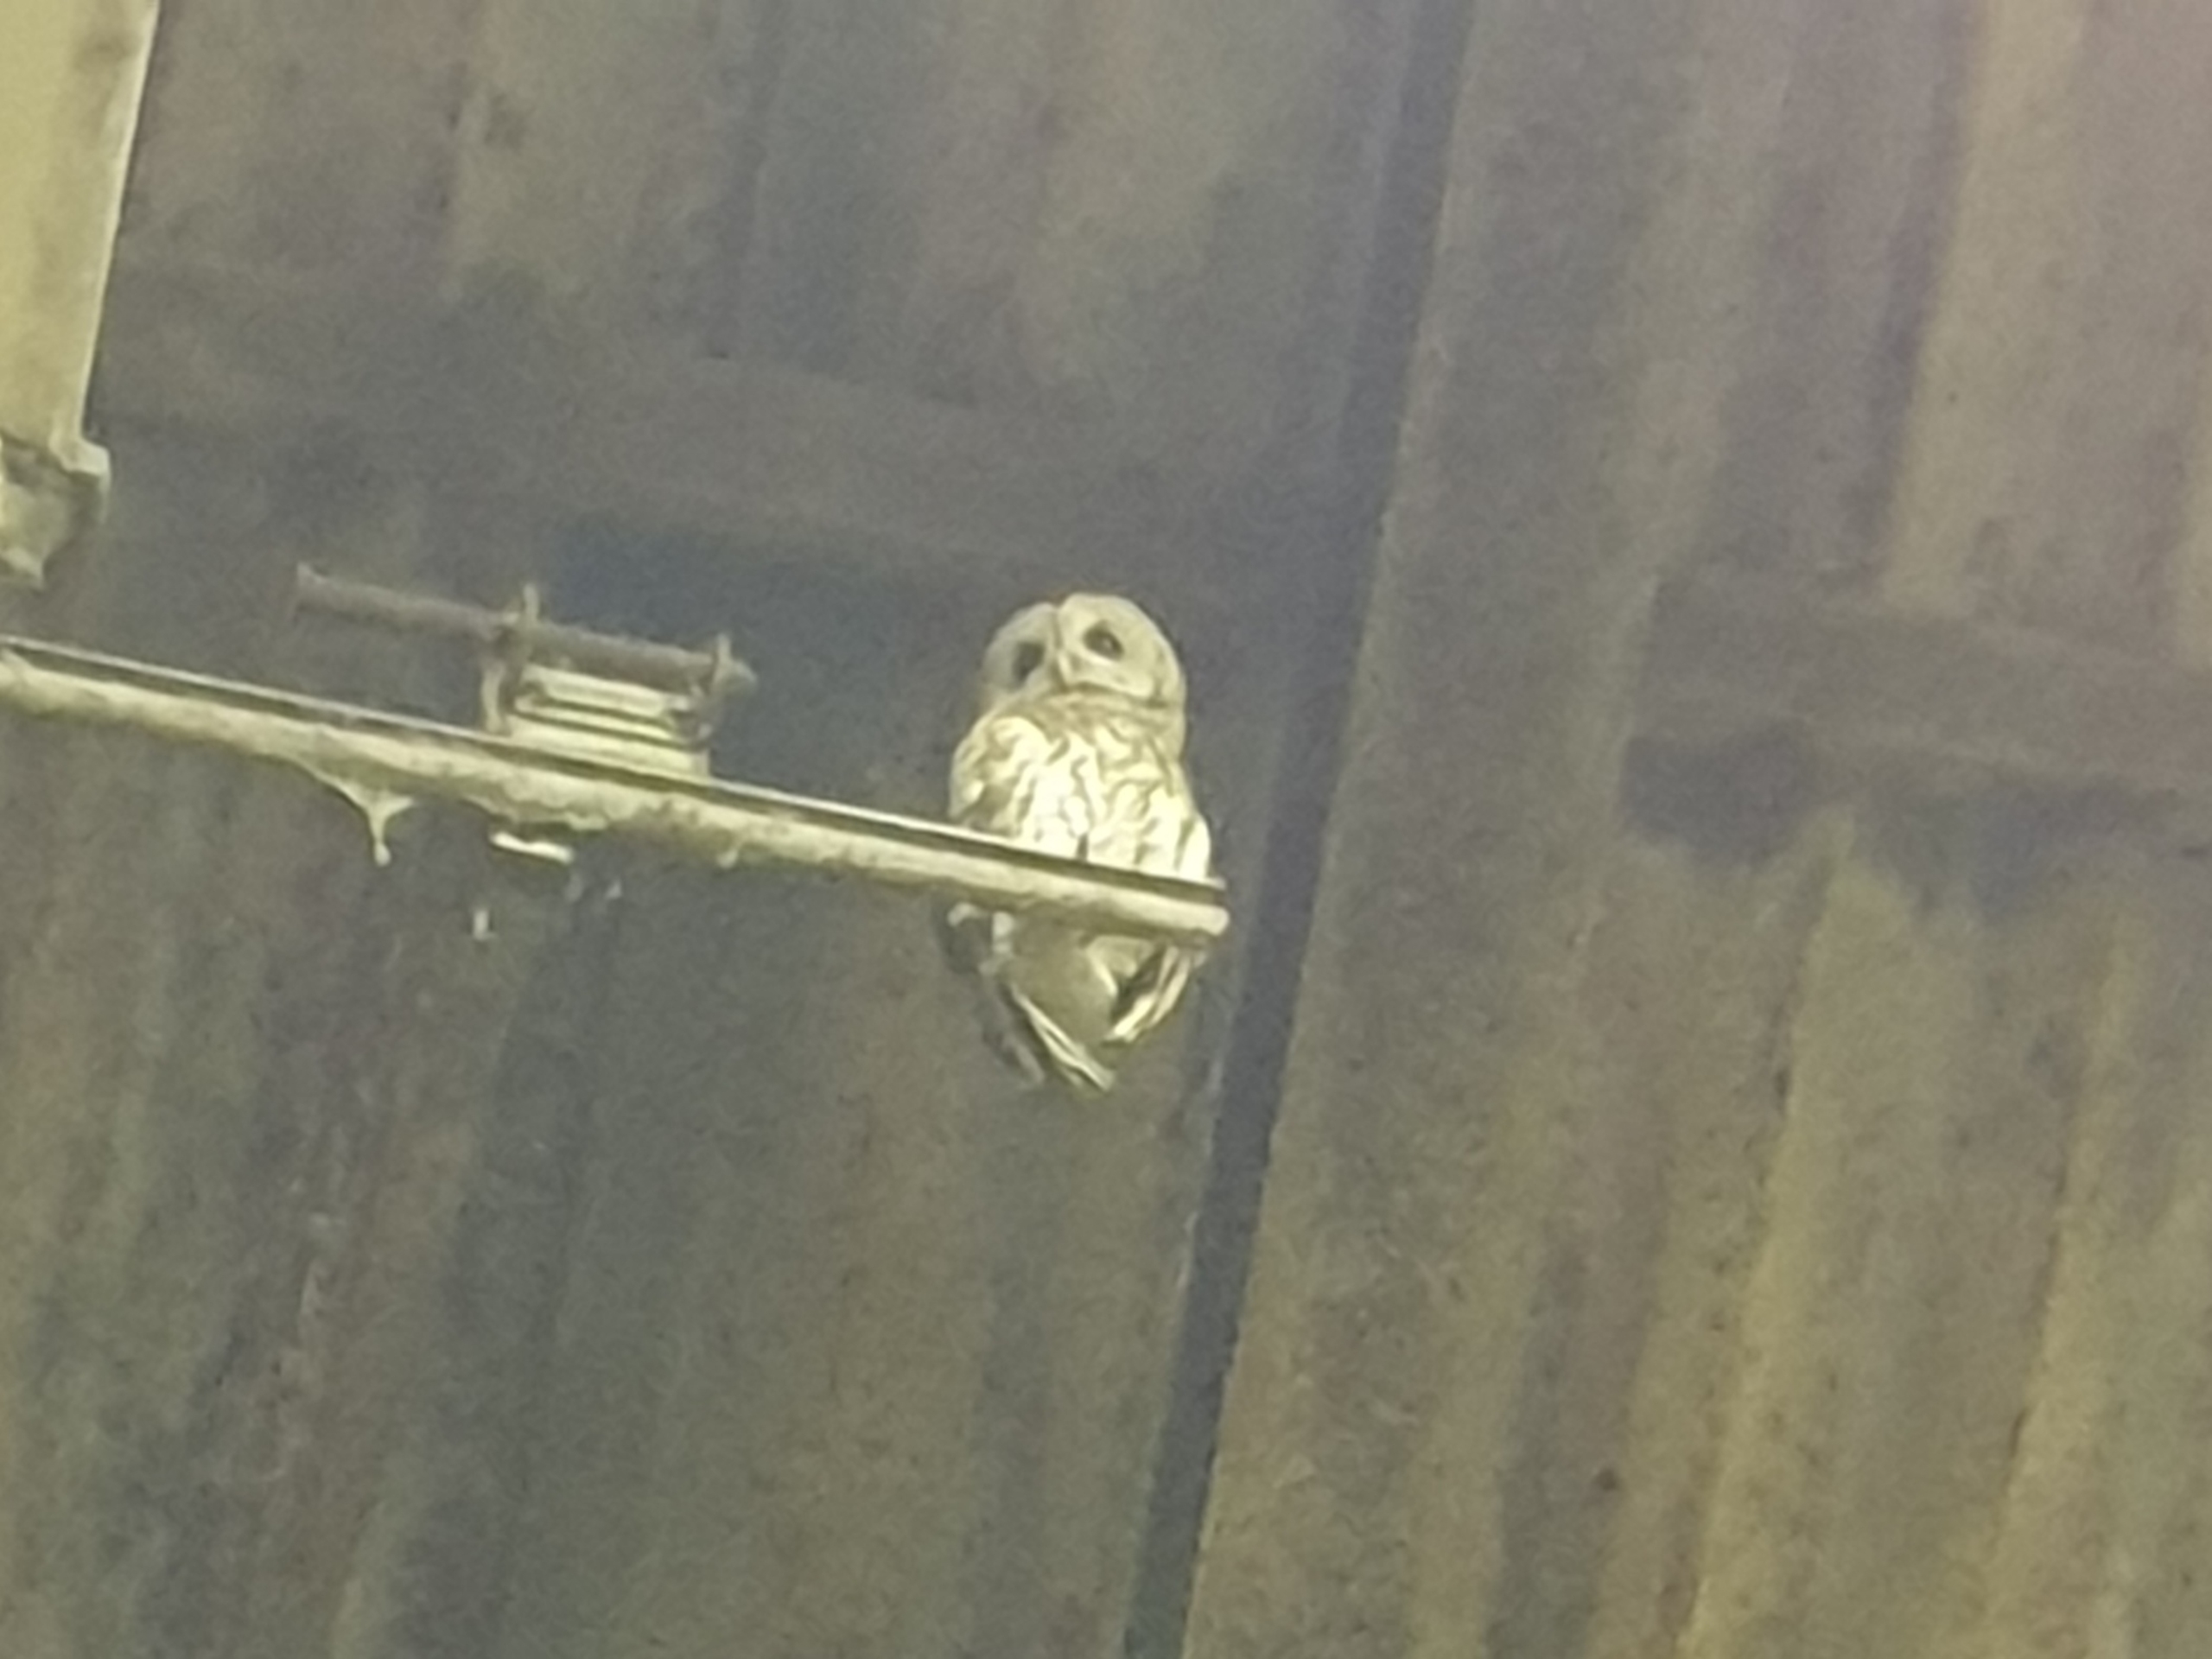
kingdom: Animalia
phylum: Chordata
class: Aves
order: Strigiformes
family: Strigidae
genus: Strix
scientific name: Strix aluco
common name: Natugle
